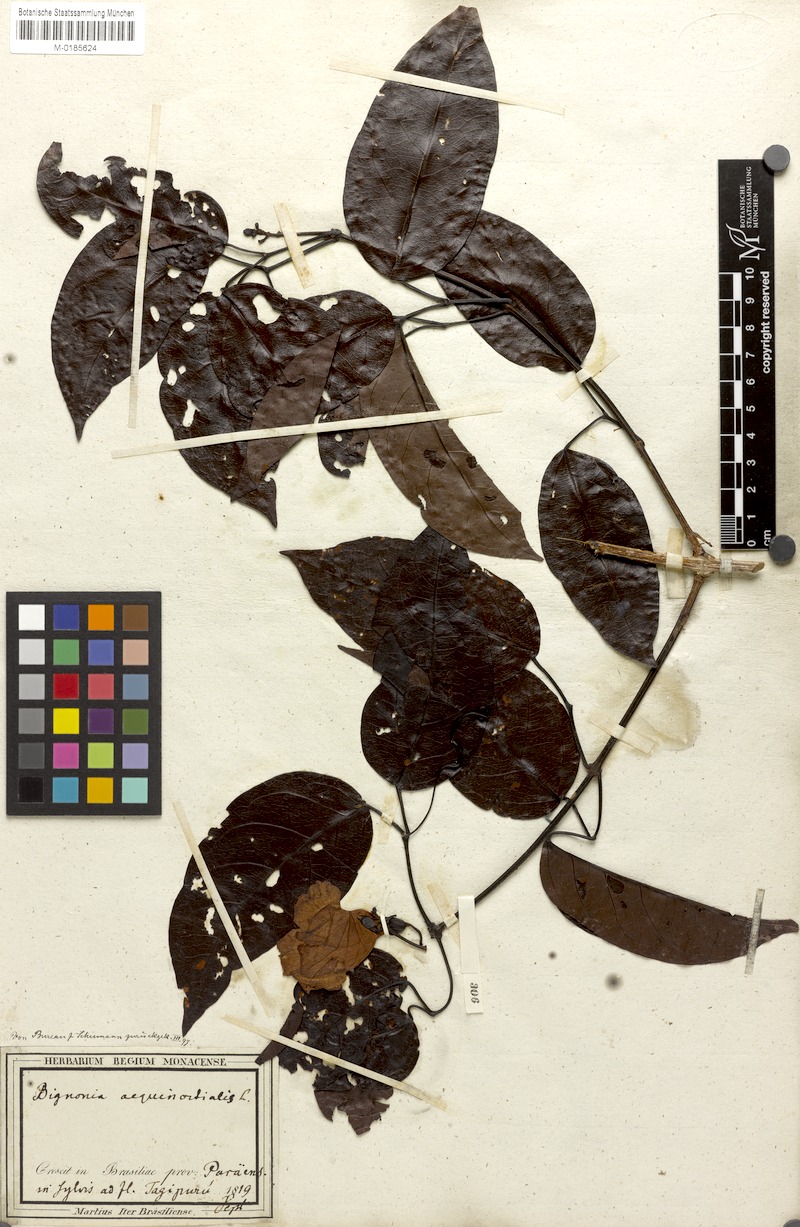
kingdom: Plantae
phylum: Tracheophyta
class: Magnoliopsida
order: Lamiales
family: Bignoniaceae
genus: Bignonia
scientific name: Bignonia aequinoctialis
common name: Garlicvine
